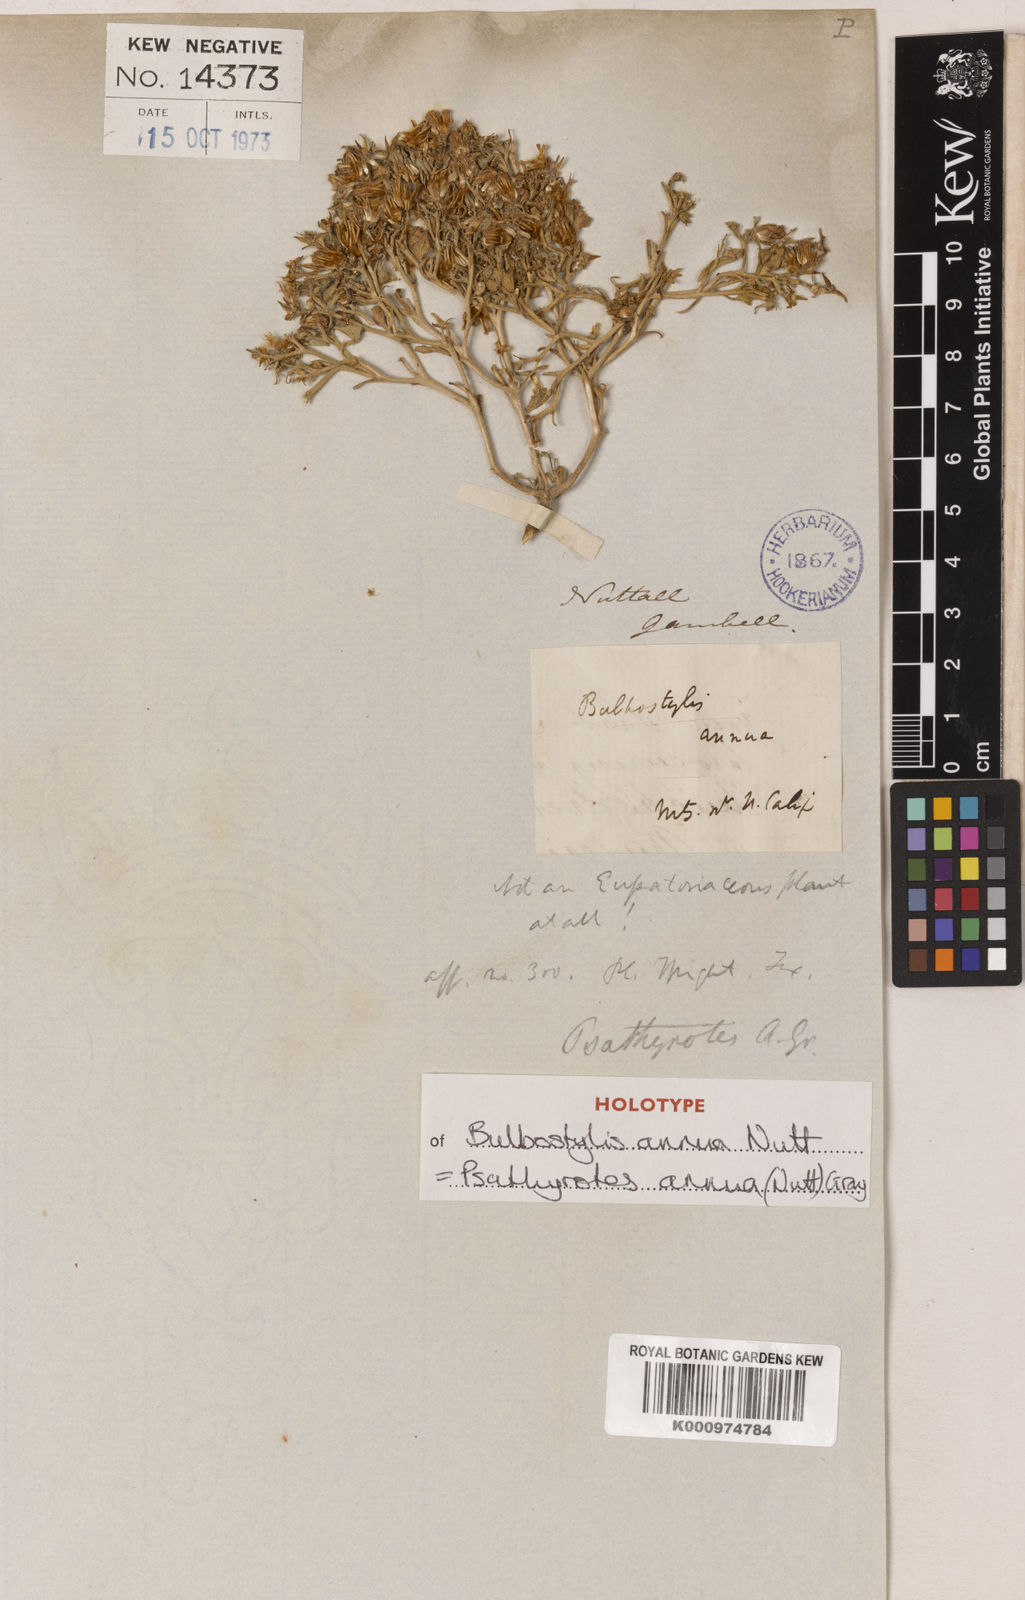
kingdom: Plantae
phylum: Tracheophyta
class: Magnoliopsida
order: Asterales
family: Asteraceae
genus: Psathyrotes
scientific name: Psathyrotes annua
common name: Mealy rosettes
